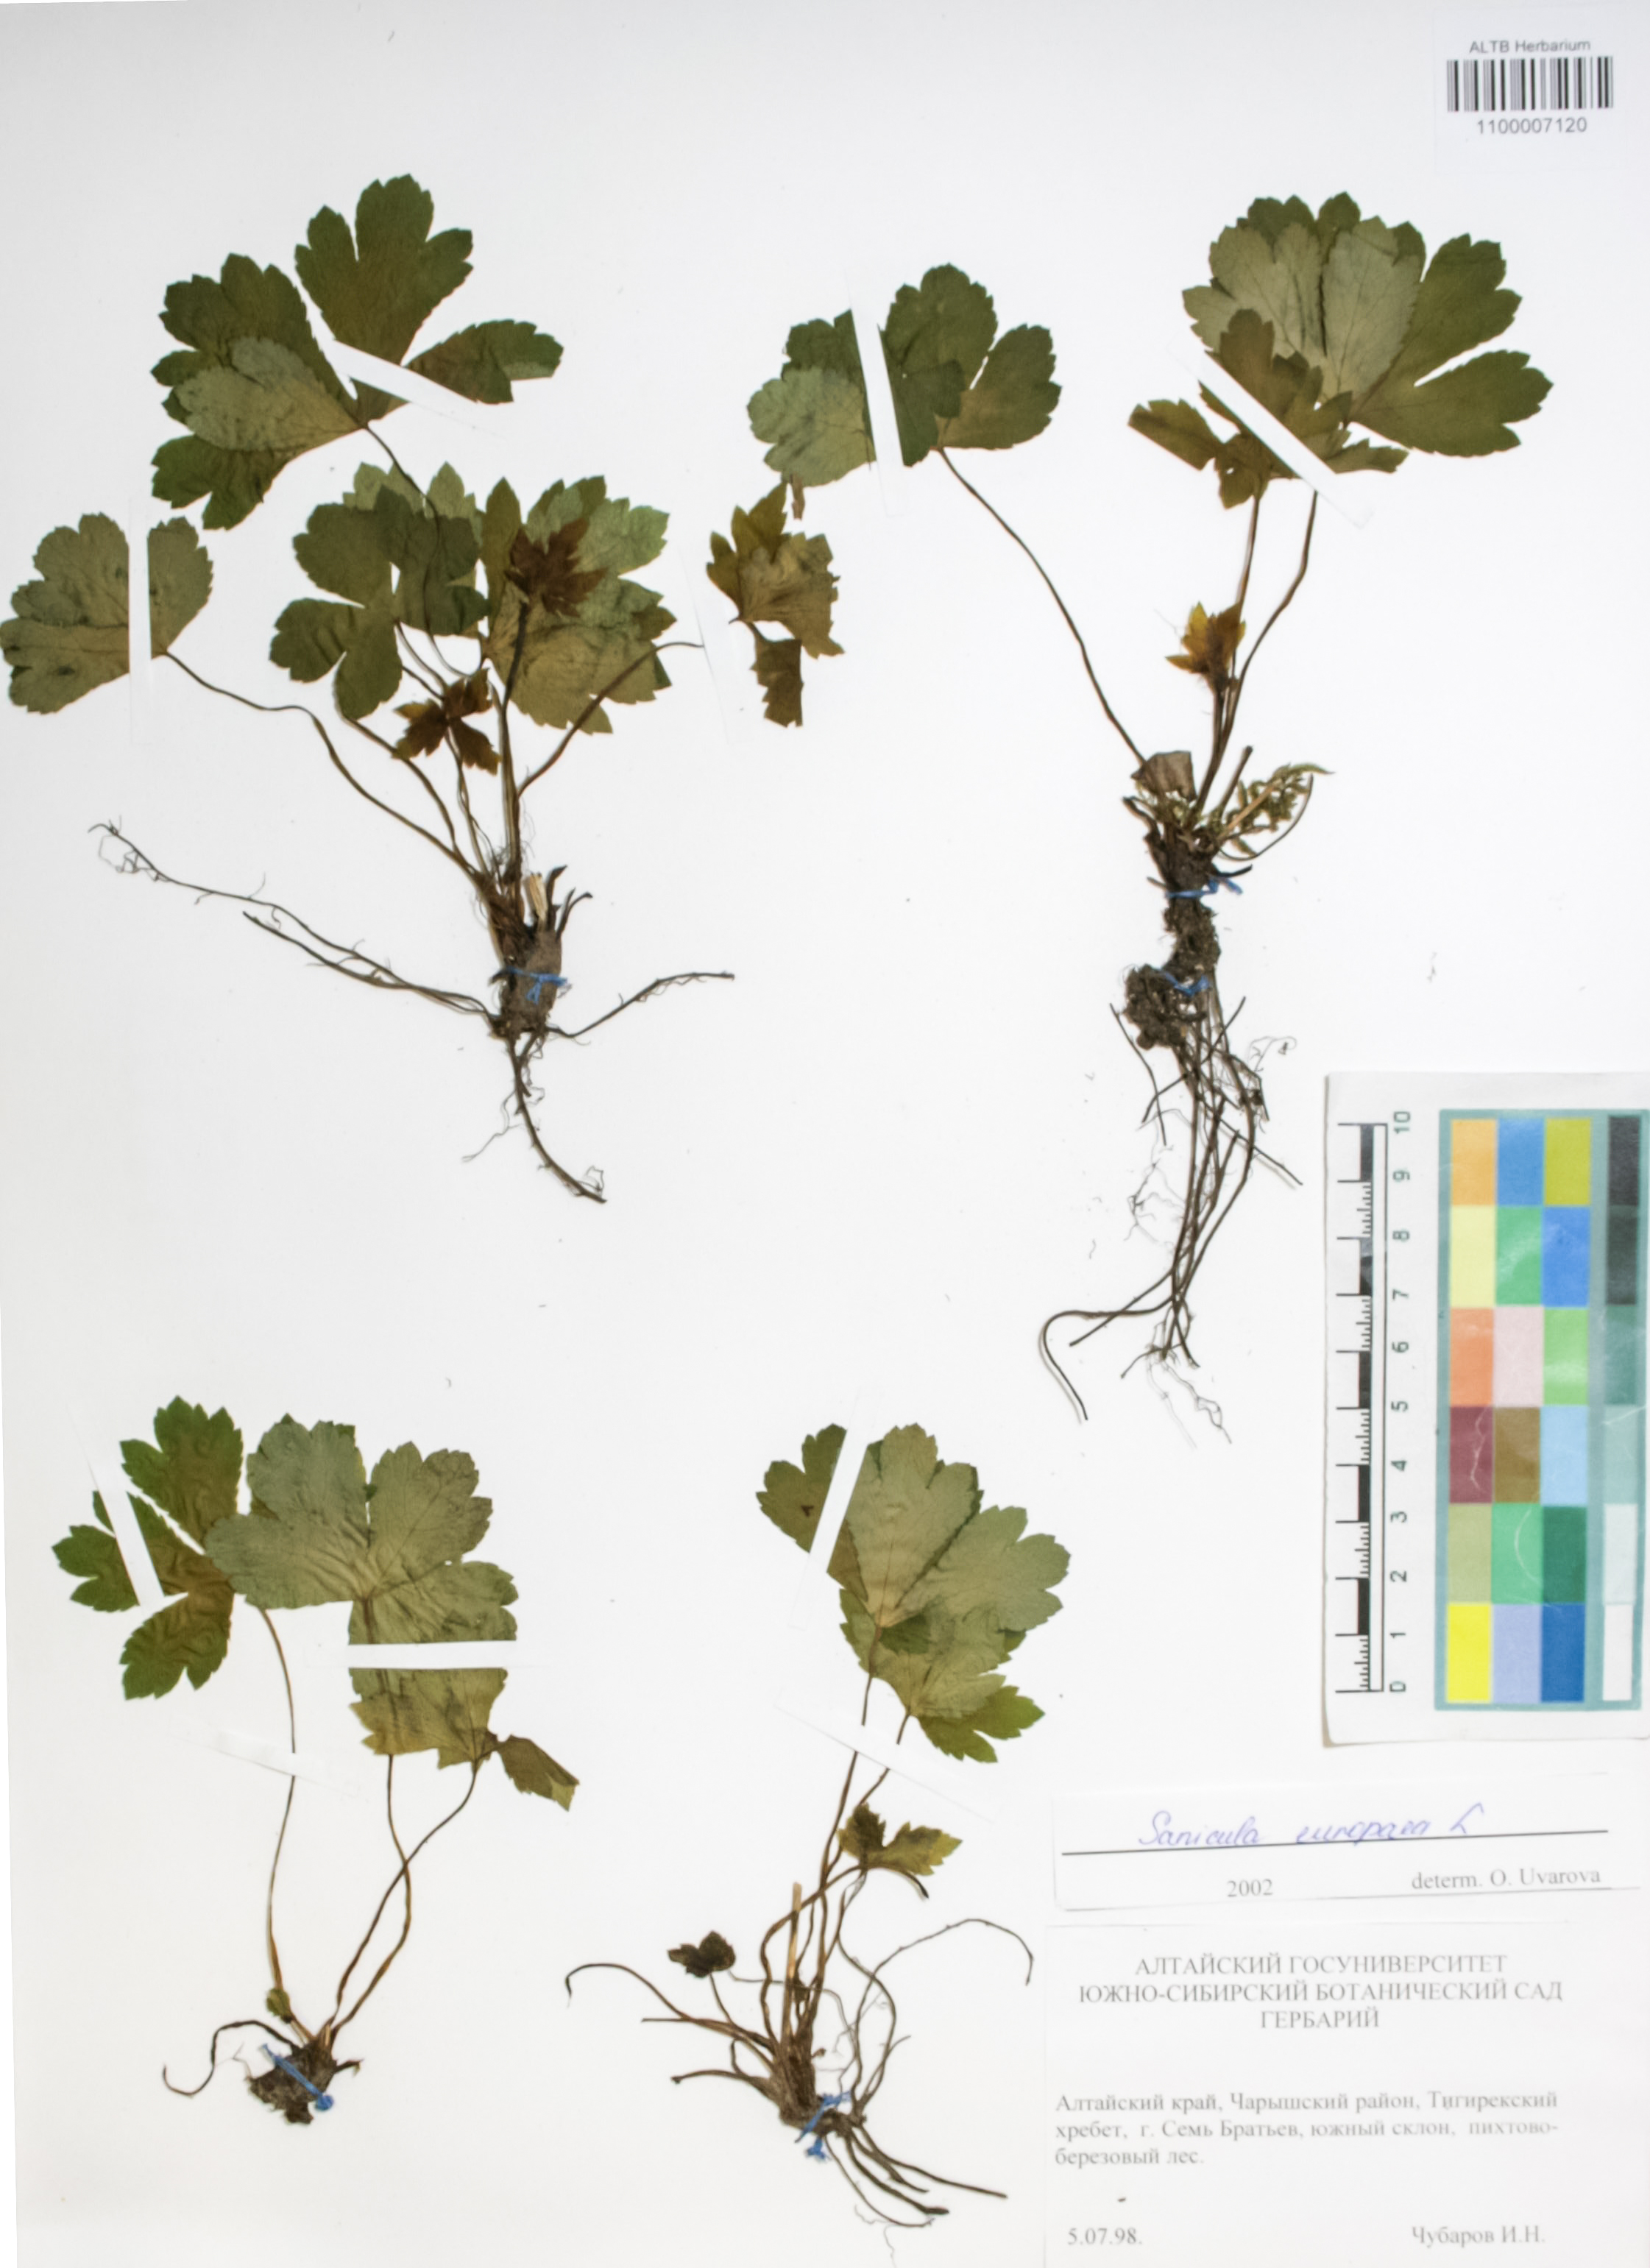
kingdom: Plantae
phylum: Tracheophyta
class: Magnoliopsida
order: Apiales
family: Apiaceae
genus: Sanicula
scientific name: Sanicula europaea
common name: Sanicle
